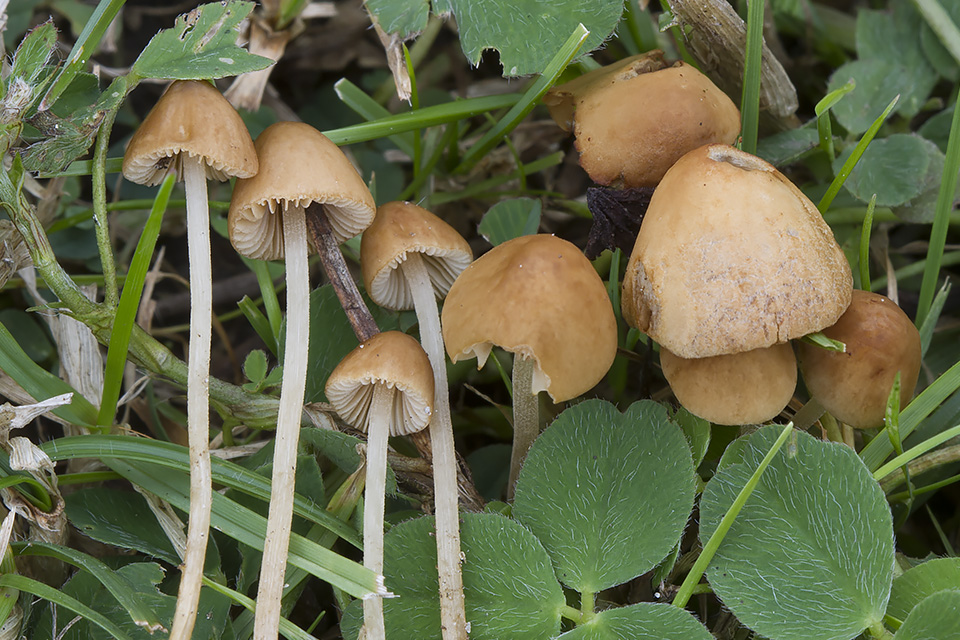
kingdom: Fungi
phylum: Basidiomycota
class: Agaricomycetes
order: Agaricales
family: Bolbitiaceae
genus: Conocybe
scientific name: Conocybe rickeniana
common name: kastaniebrun keglehat
